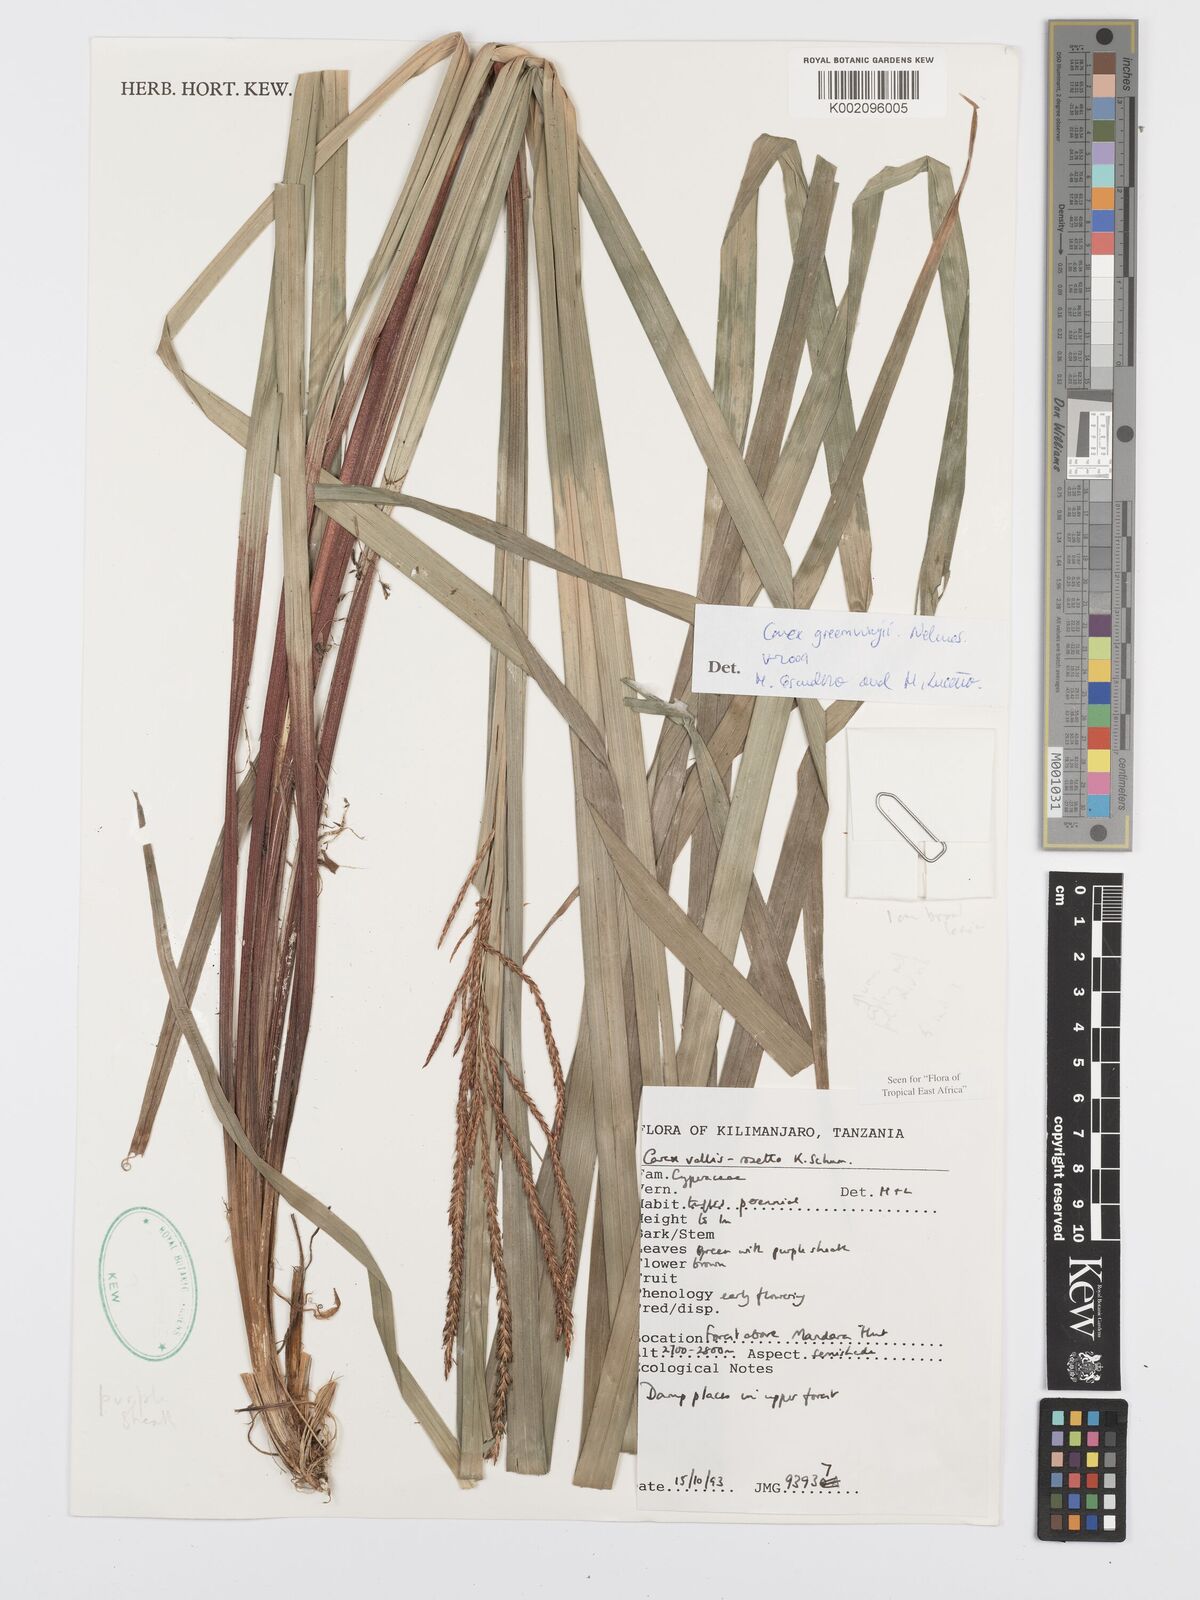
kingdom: Plantae
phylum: Tracheophyta
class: Liliopsida
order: Poales
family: Cyperaceae
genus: Carex
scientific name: Carex greenwayi
